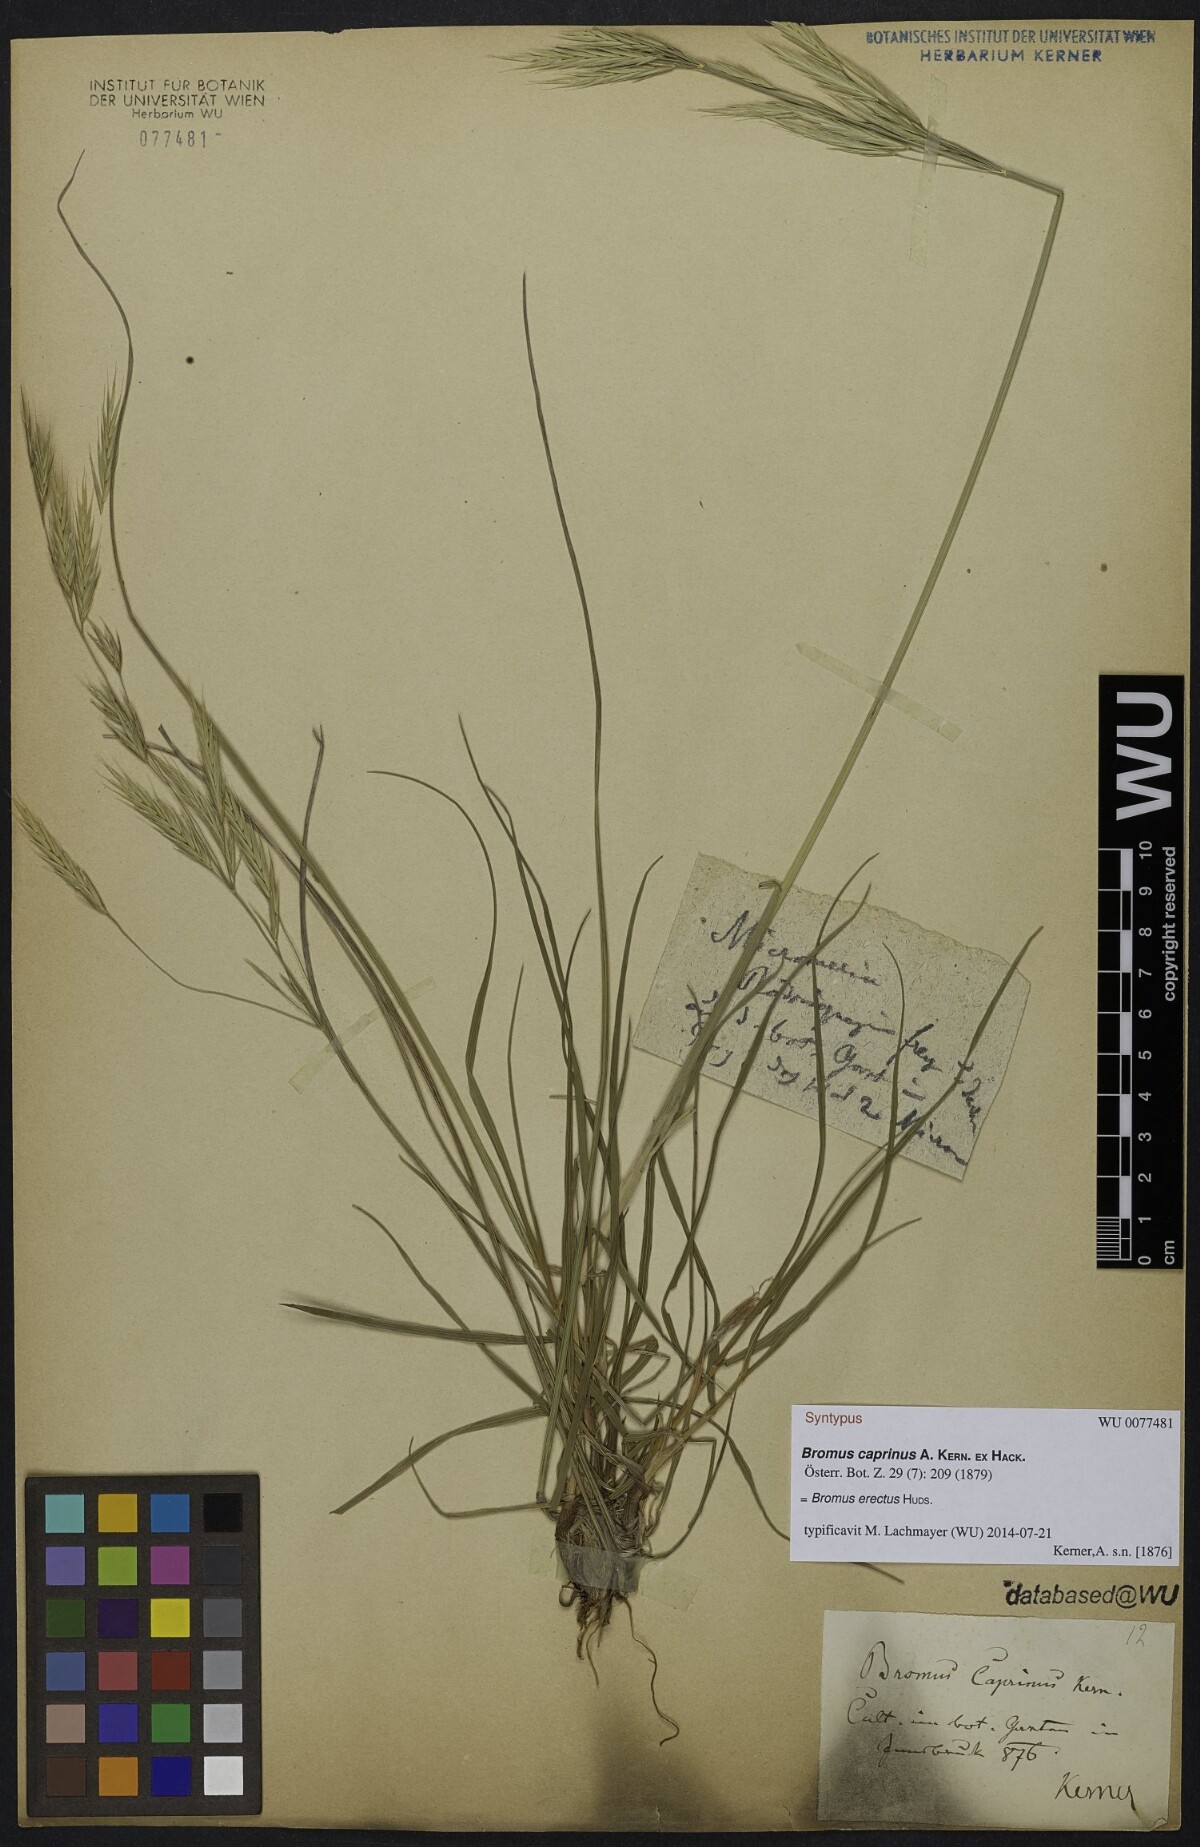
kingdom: Plantae
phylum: Tracheophyta
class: Liliopsida
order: Poales
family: Poaceae
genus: Bromus
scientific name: Bromus erectus
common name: Erect brome
